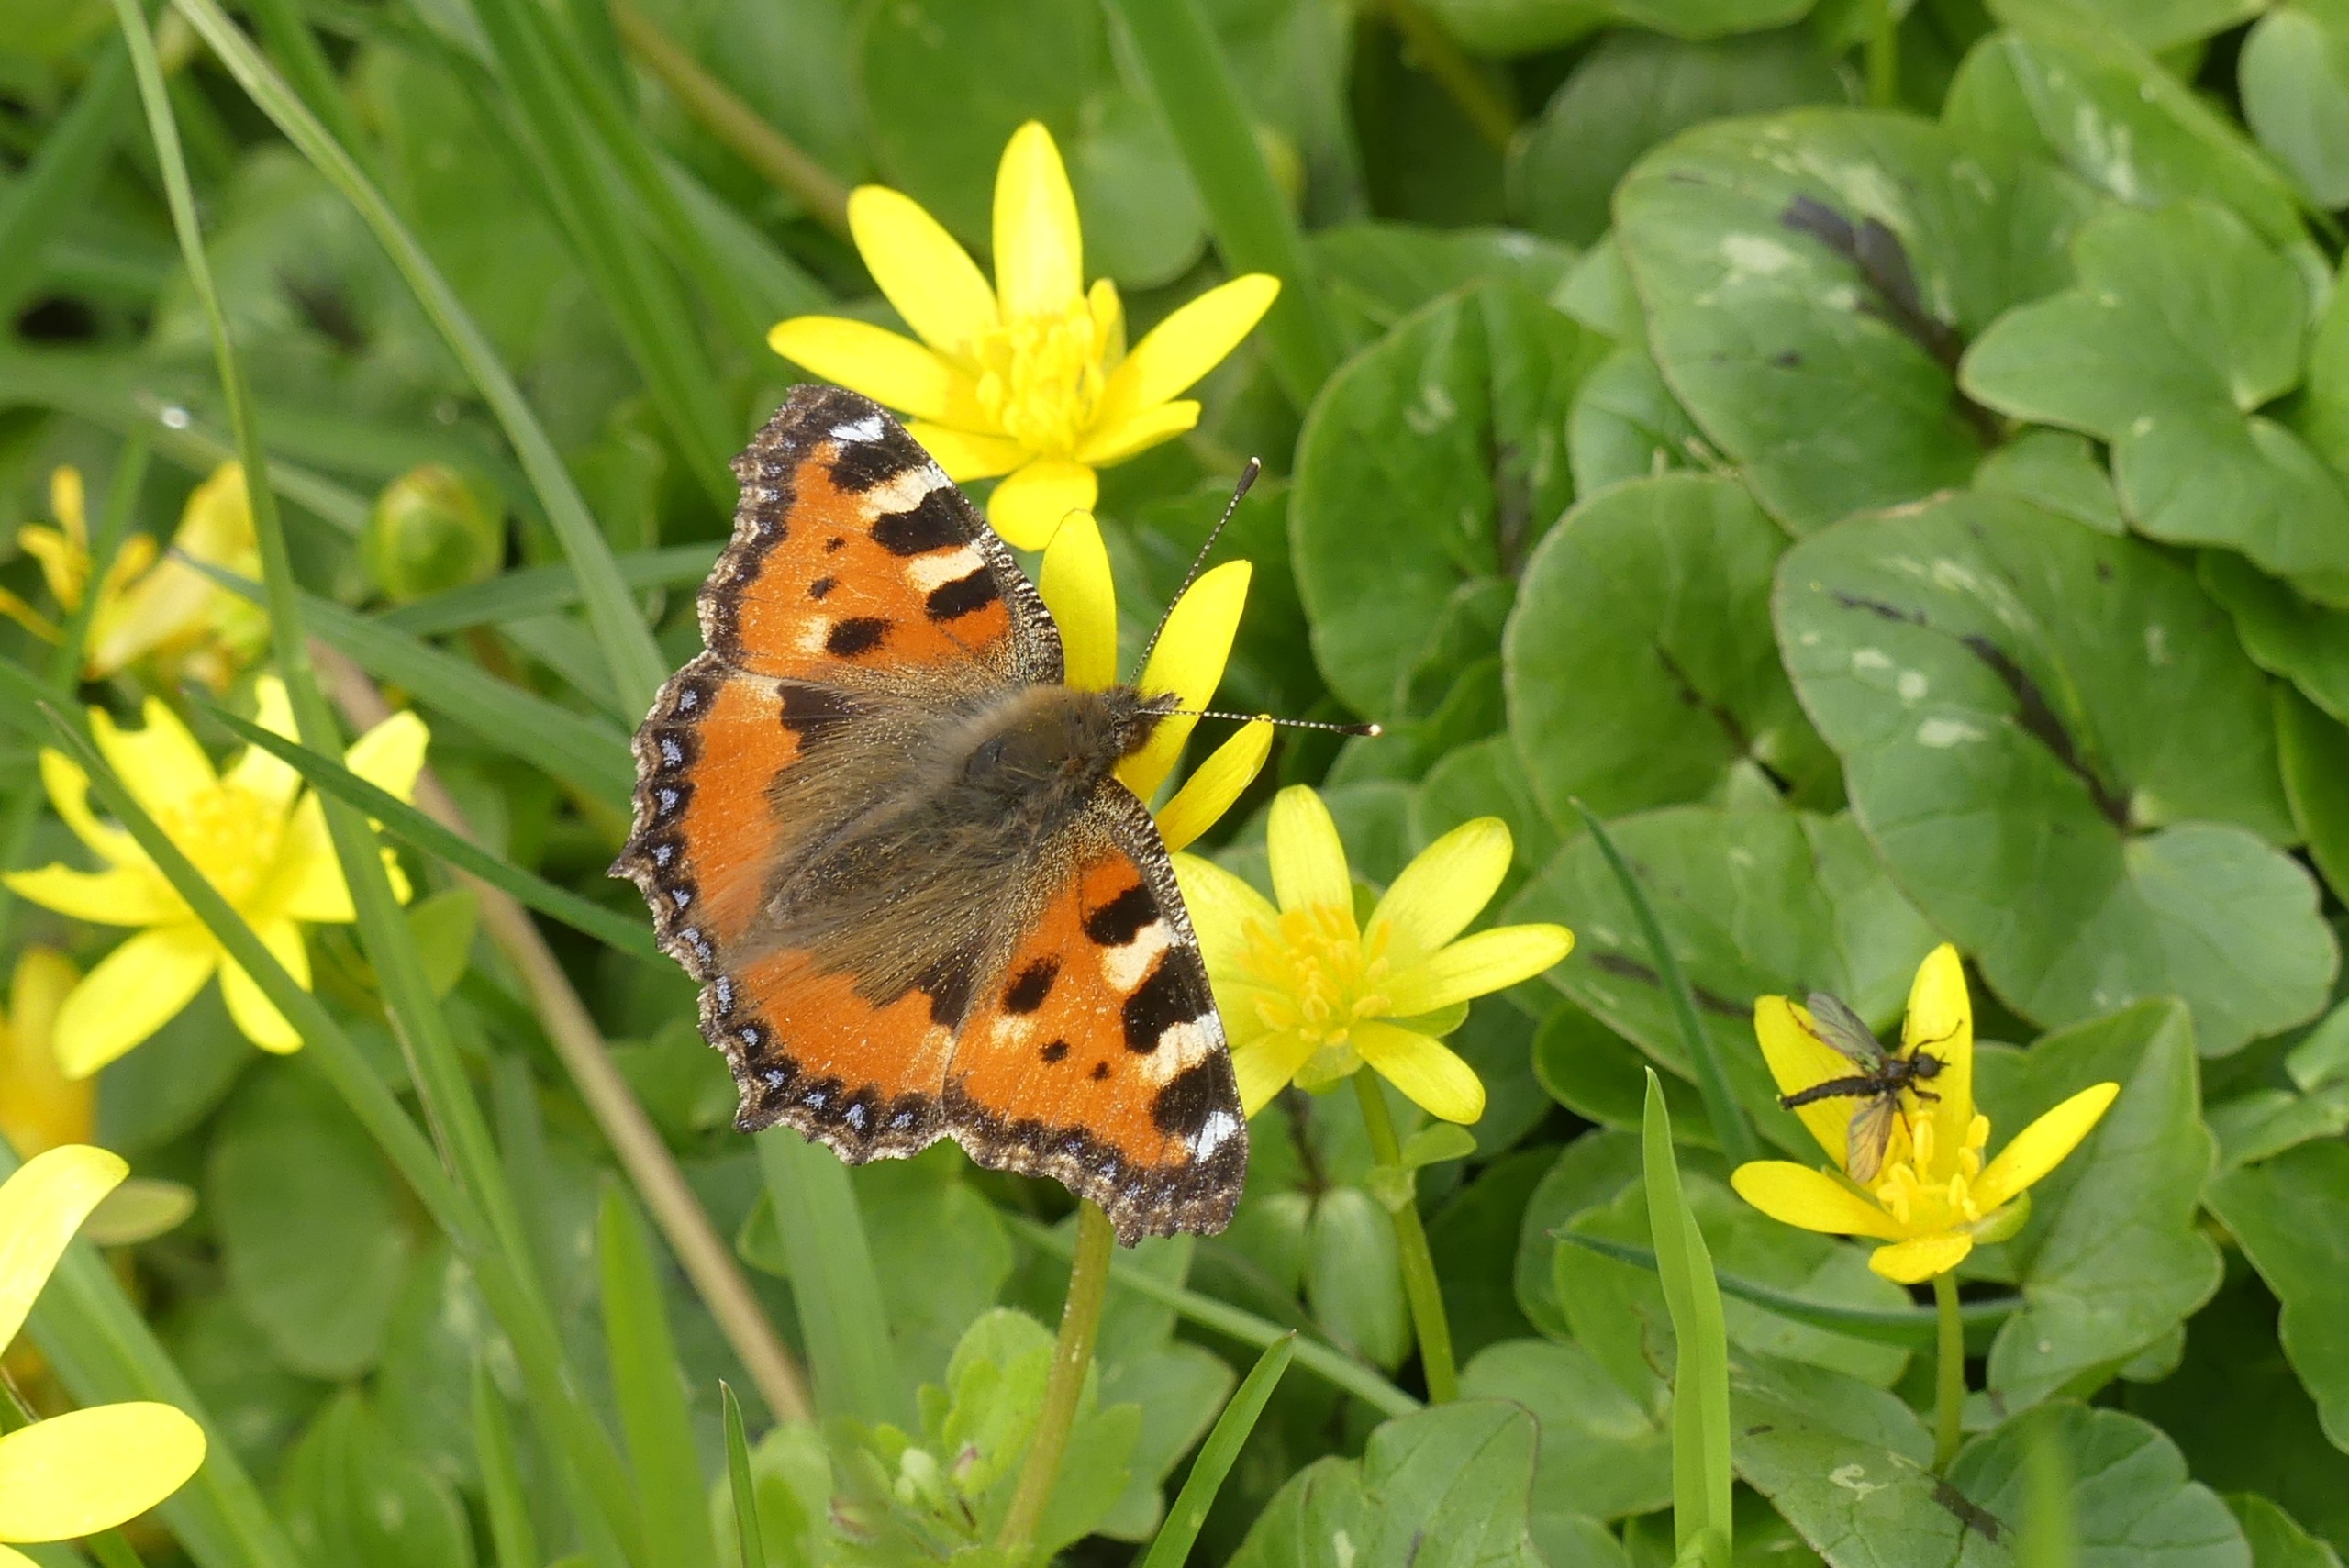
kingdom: Animalia
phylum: Arthropoda
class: Insecta
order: Lepidoptera
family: Nymphalidae
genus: Aglais
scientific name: Aglais urticae
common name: Nældens takvinge
